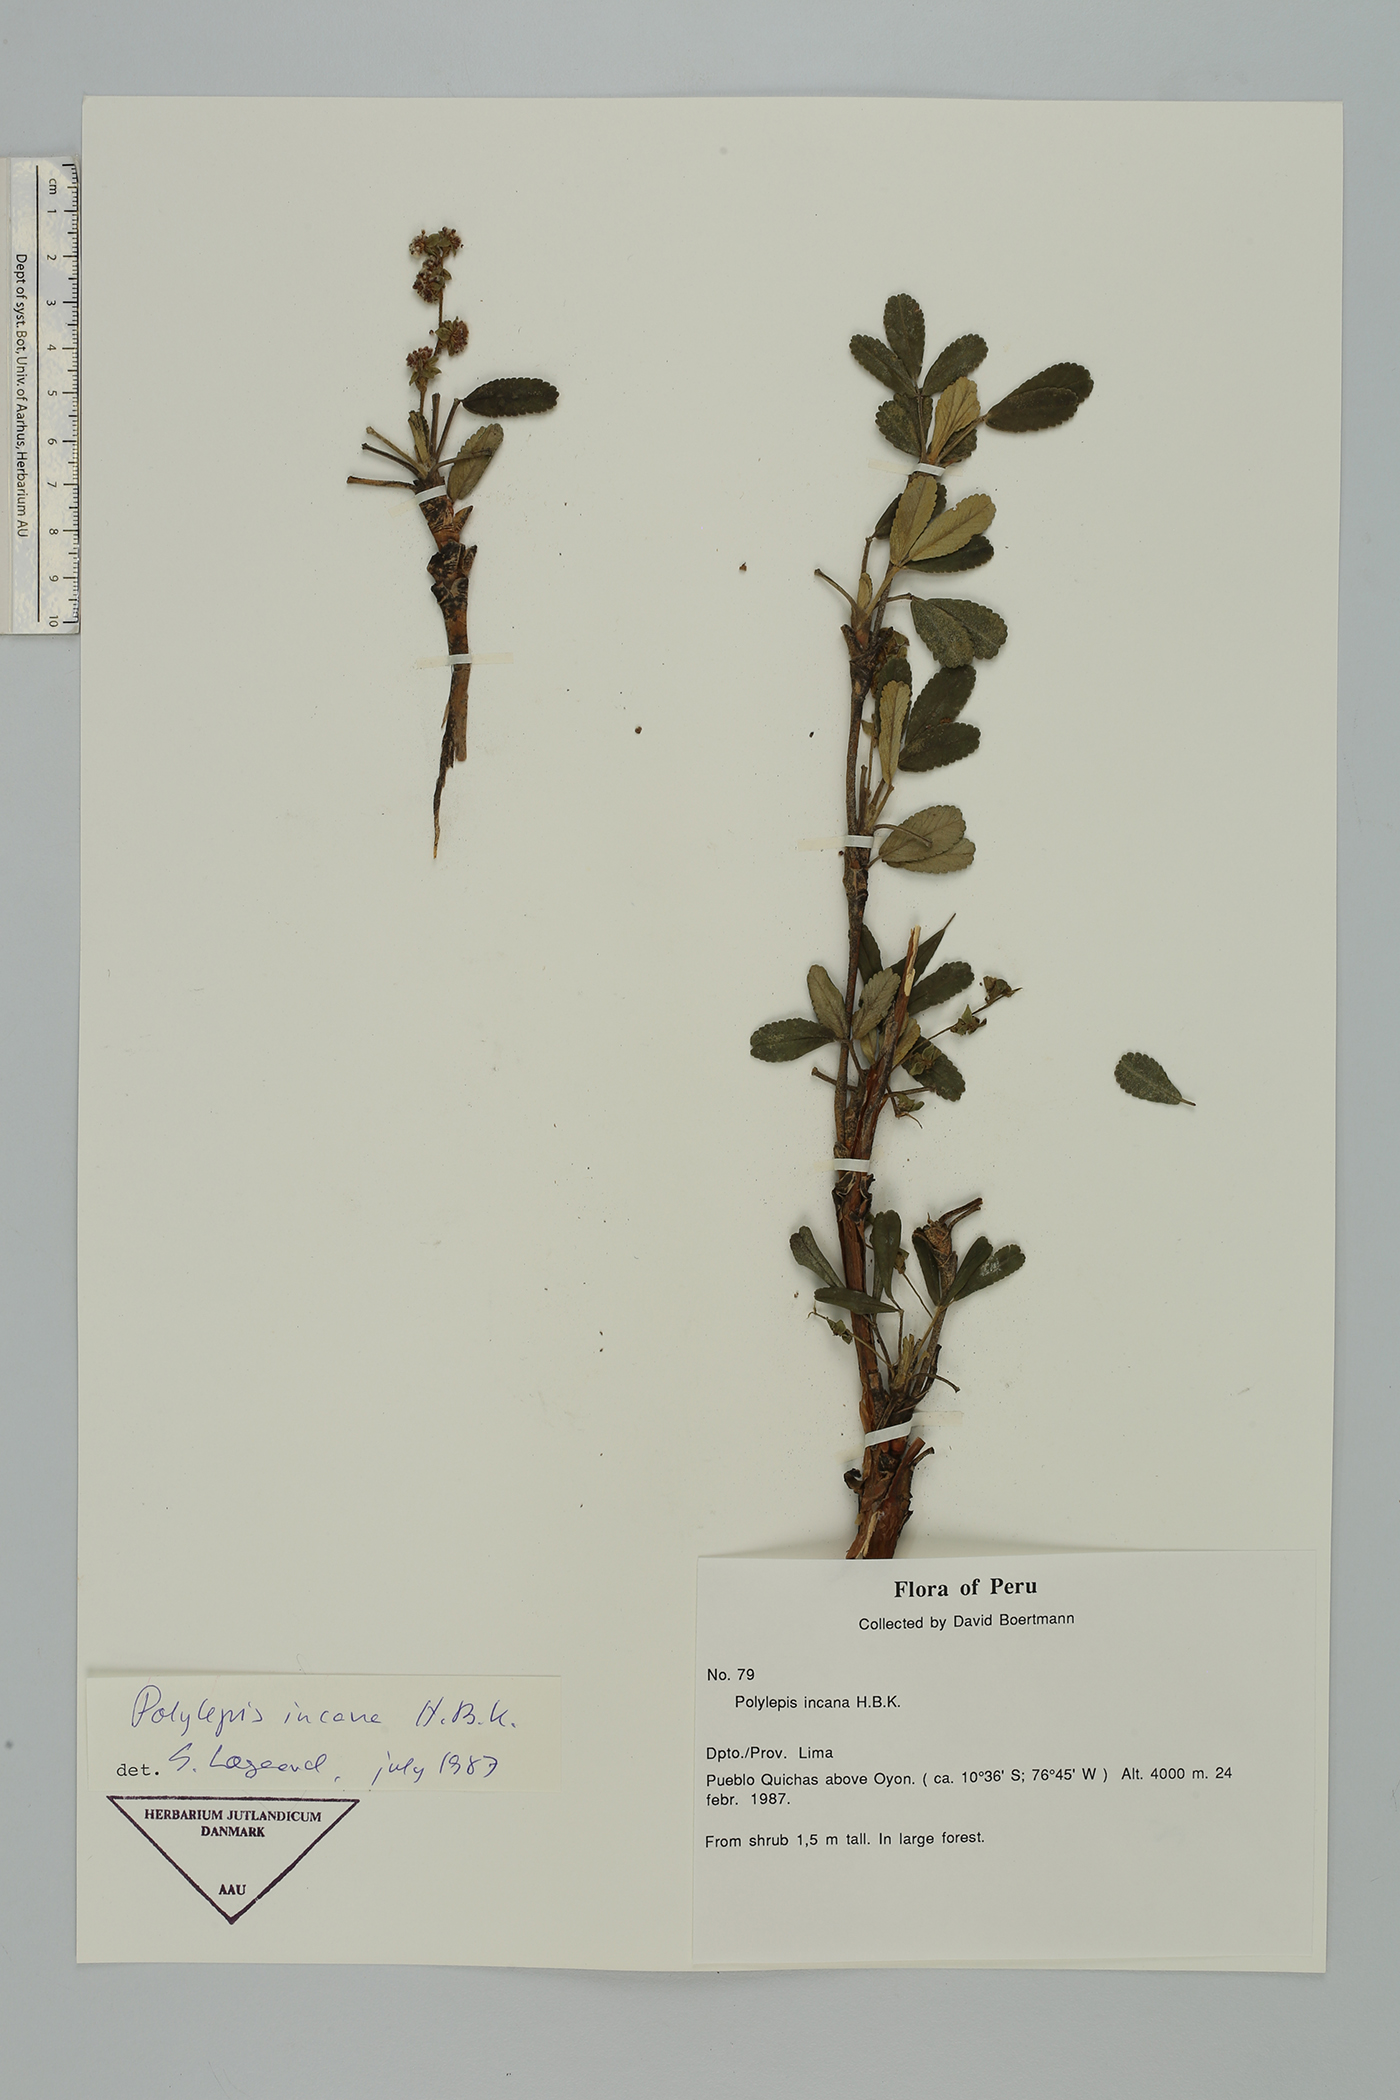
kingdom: Plantae
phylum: Tracheophyta
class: Magnoliopsida
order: Rosales
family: Rosaceae
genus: Polylepis
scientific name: Polylepis incana
